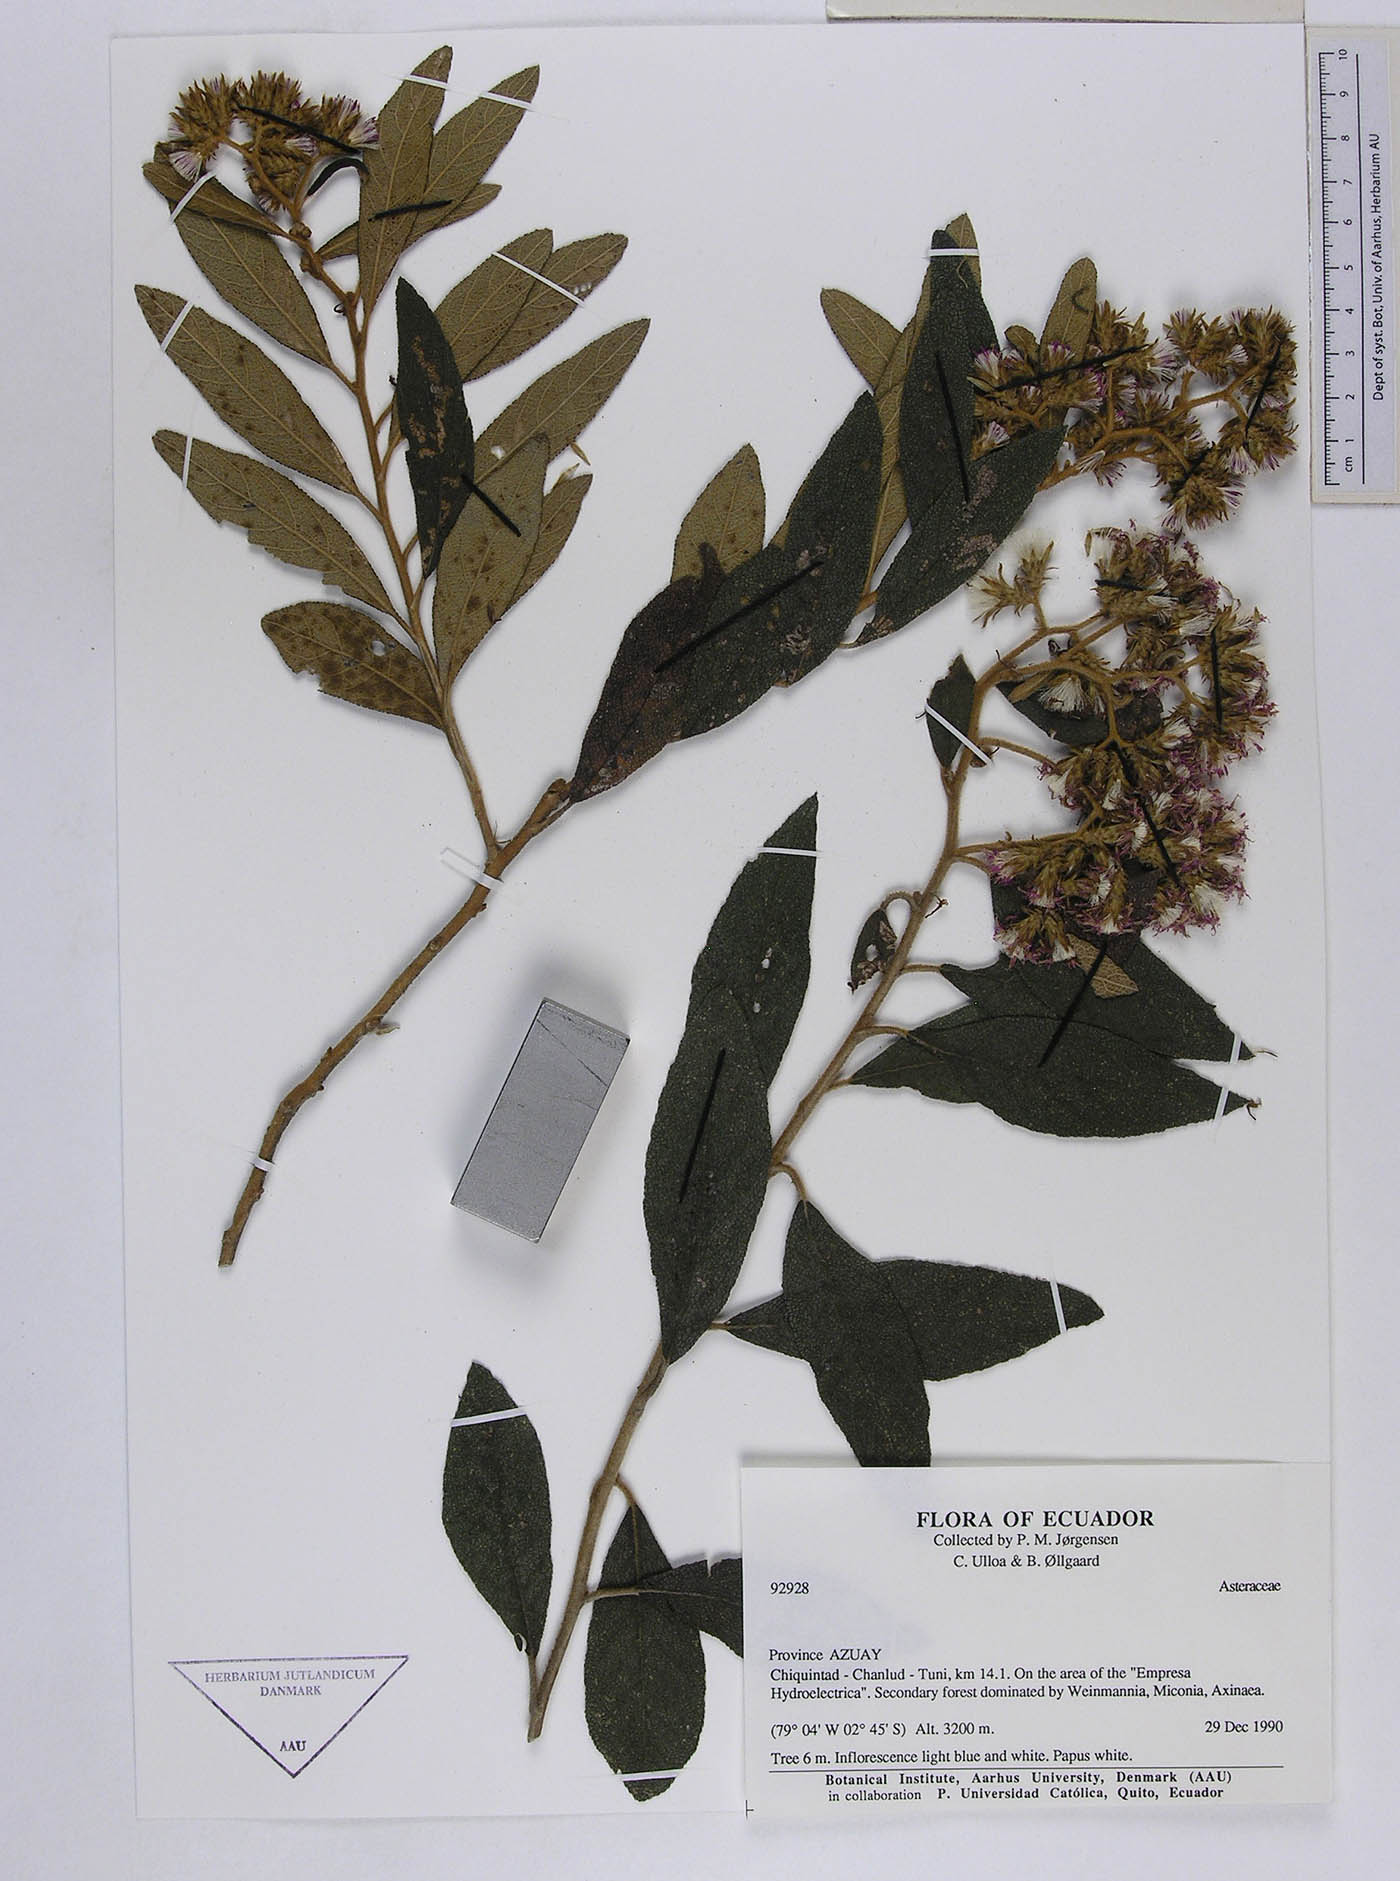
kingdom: Plantae
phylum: Tracheophyta
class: Magnoliopsida
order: Asterales
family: Asteraceae
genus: Critoniopsis
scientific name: Critoniopsis huairacajana
